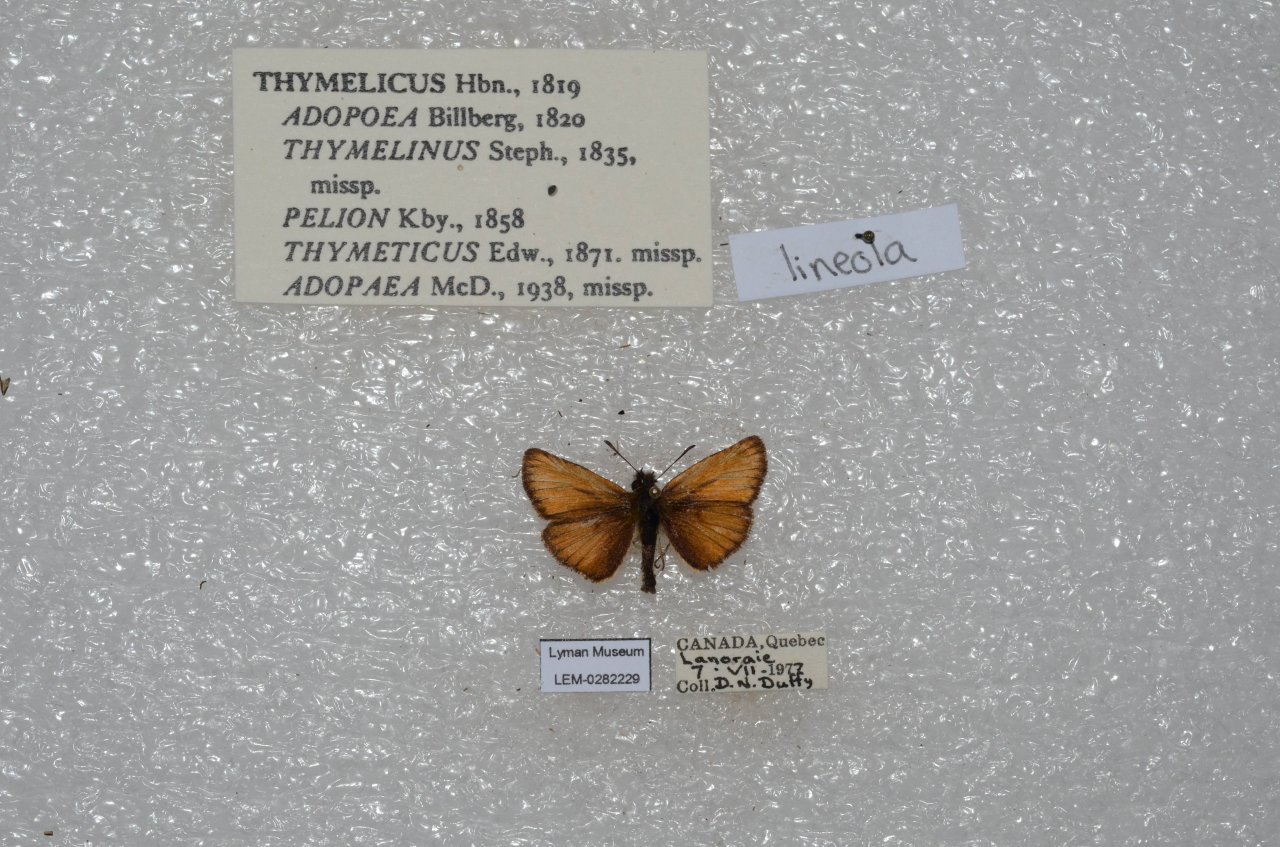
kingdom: Animalia
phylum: Arthropoda
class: Insecta
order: Lepidoptera
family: Hesperiidae
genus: Thymelicus
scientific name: Thymelicus lineola
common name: European Skipper
